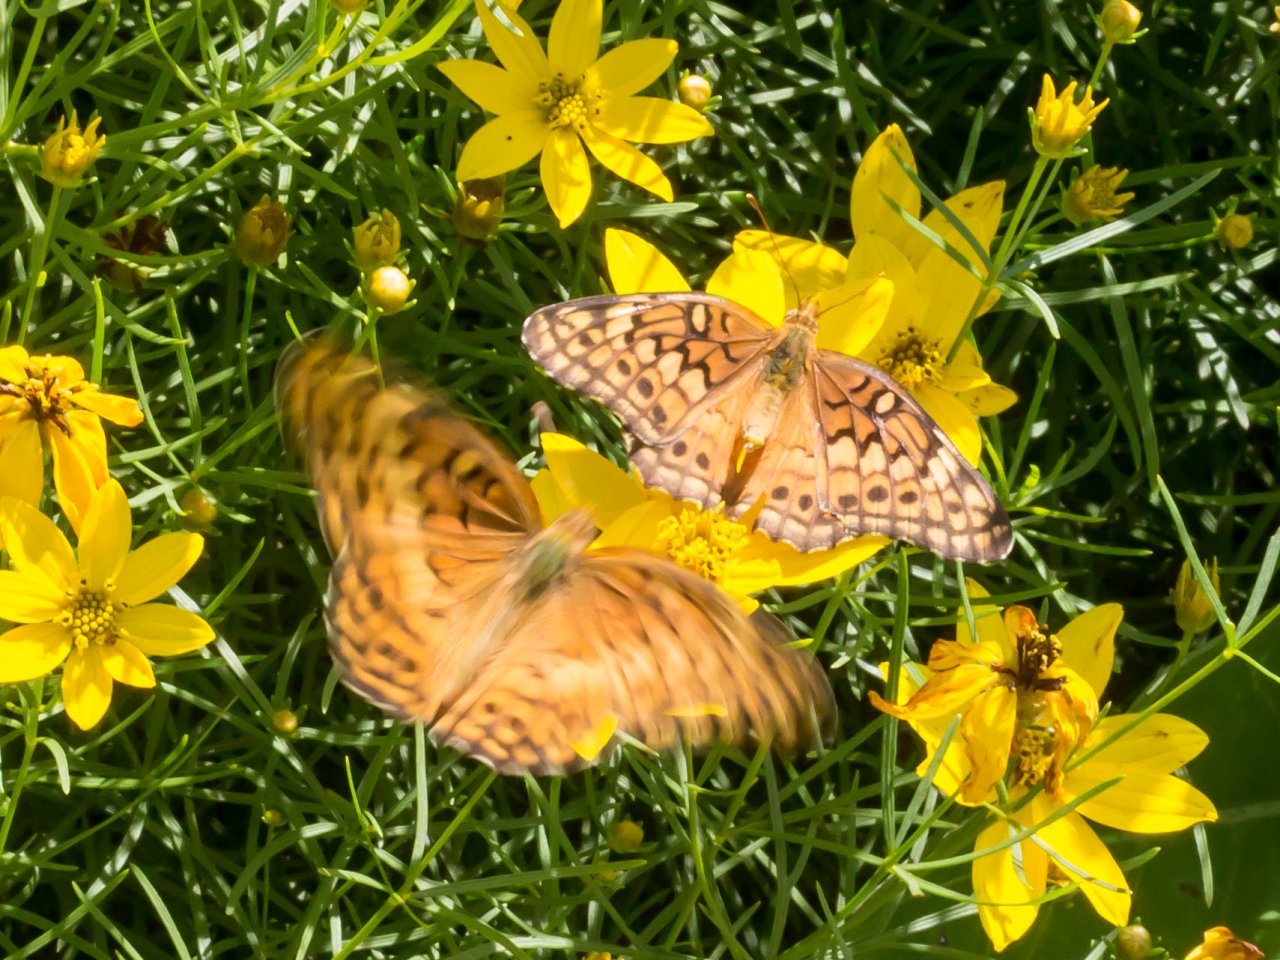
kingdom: Animalia
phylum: Arthropoda
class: Insecta
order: Lepidoptera
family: Nymphalidae
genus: Euptoieta
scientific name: Euptoieta claudia
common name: Variegated Fritillary
